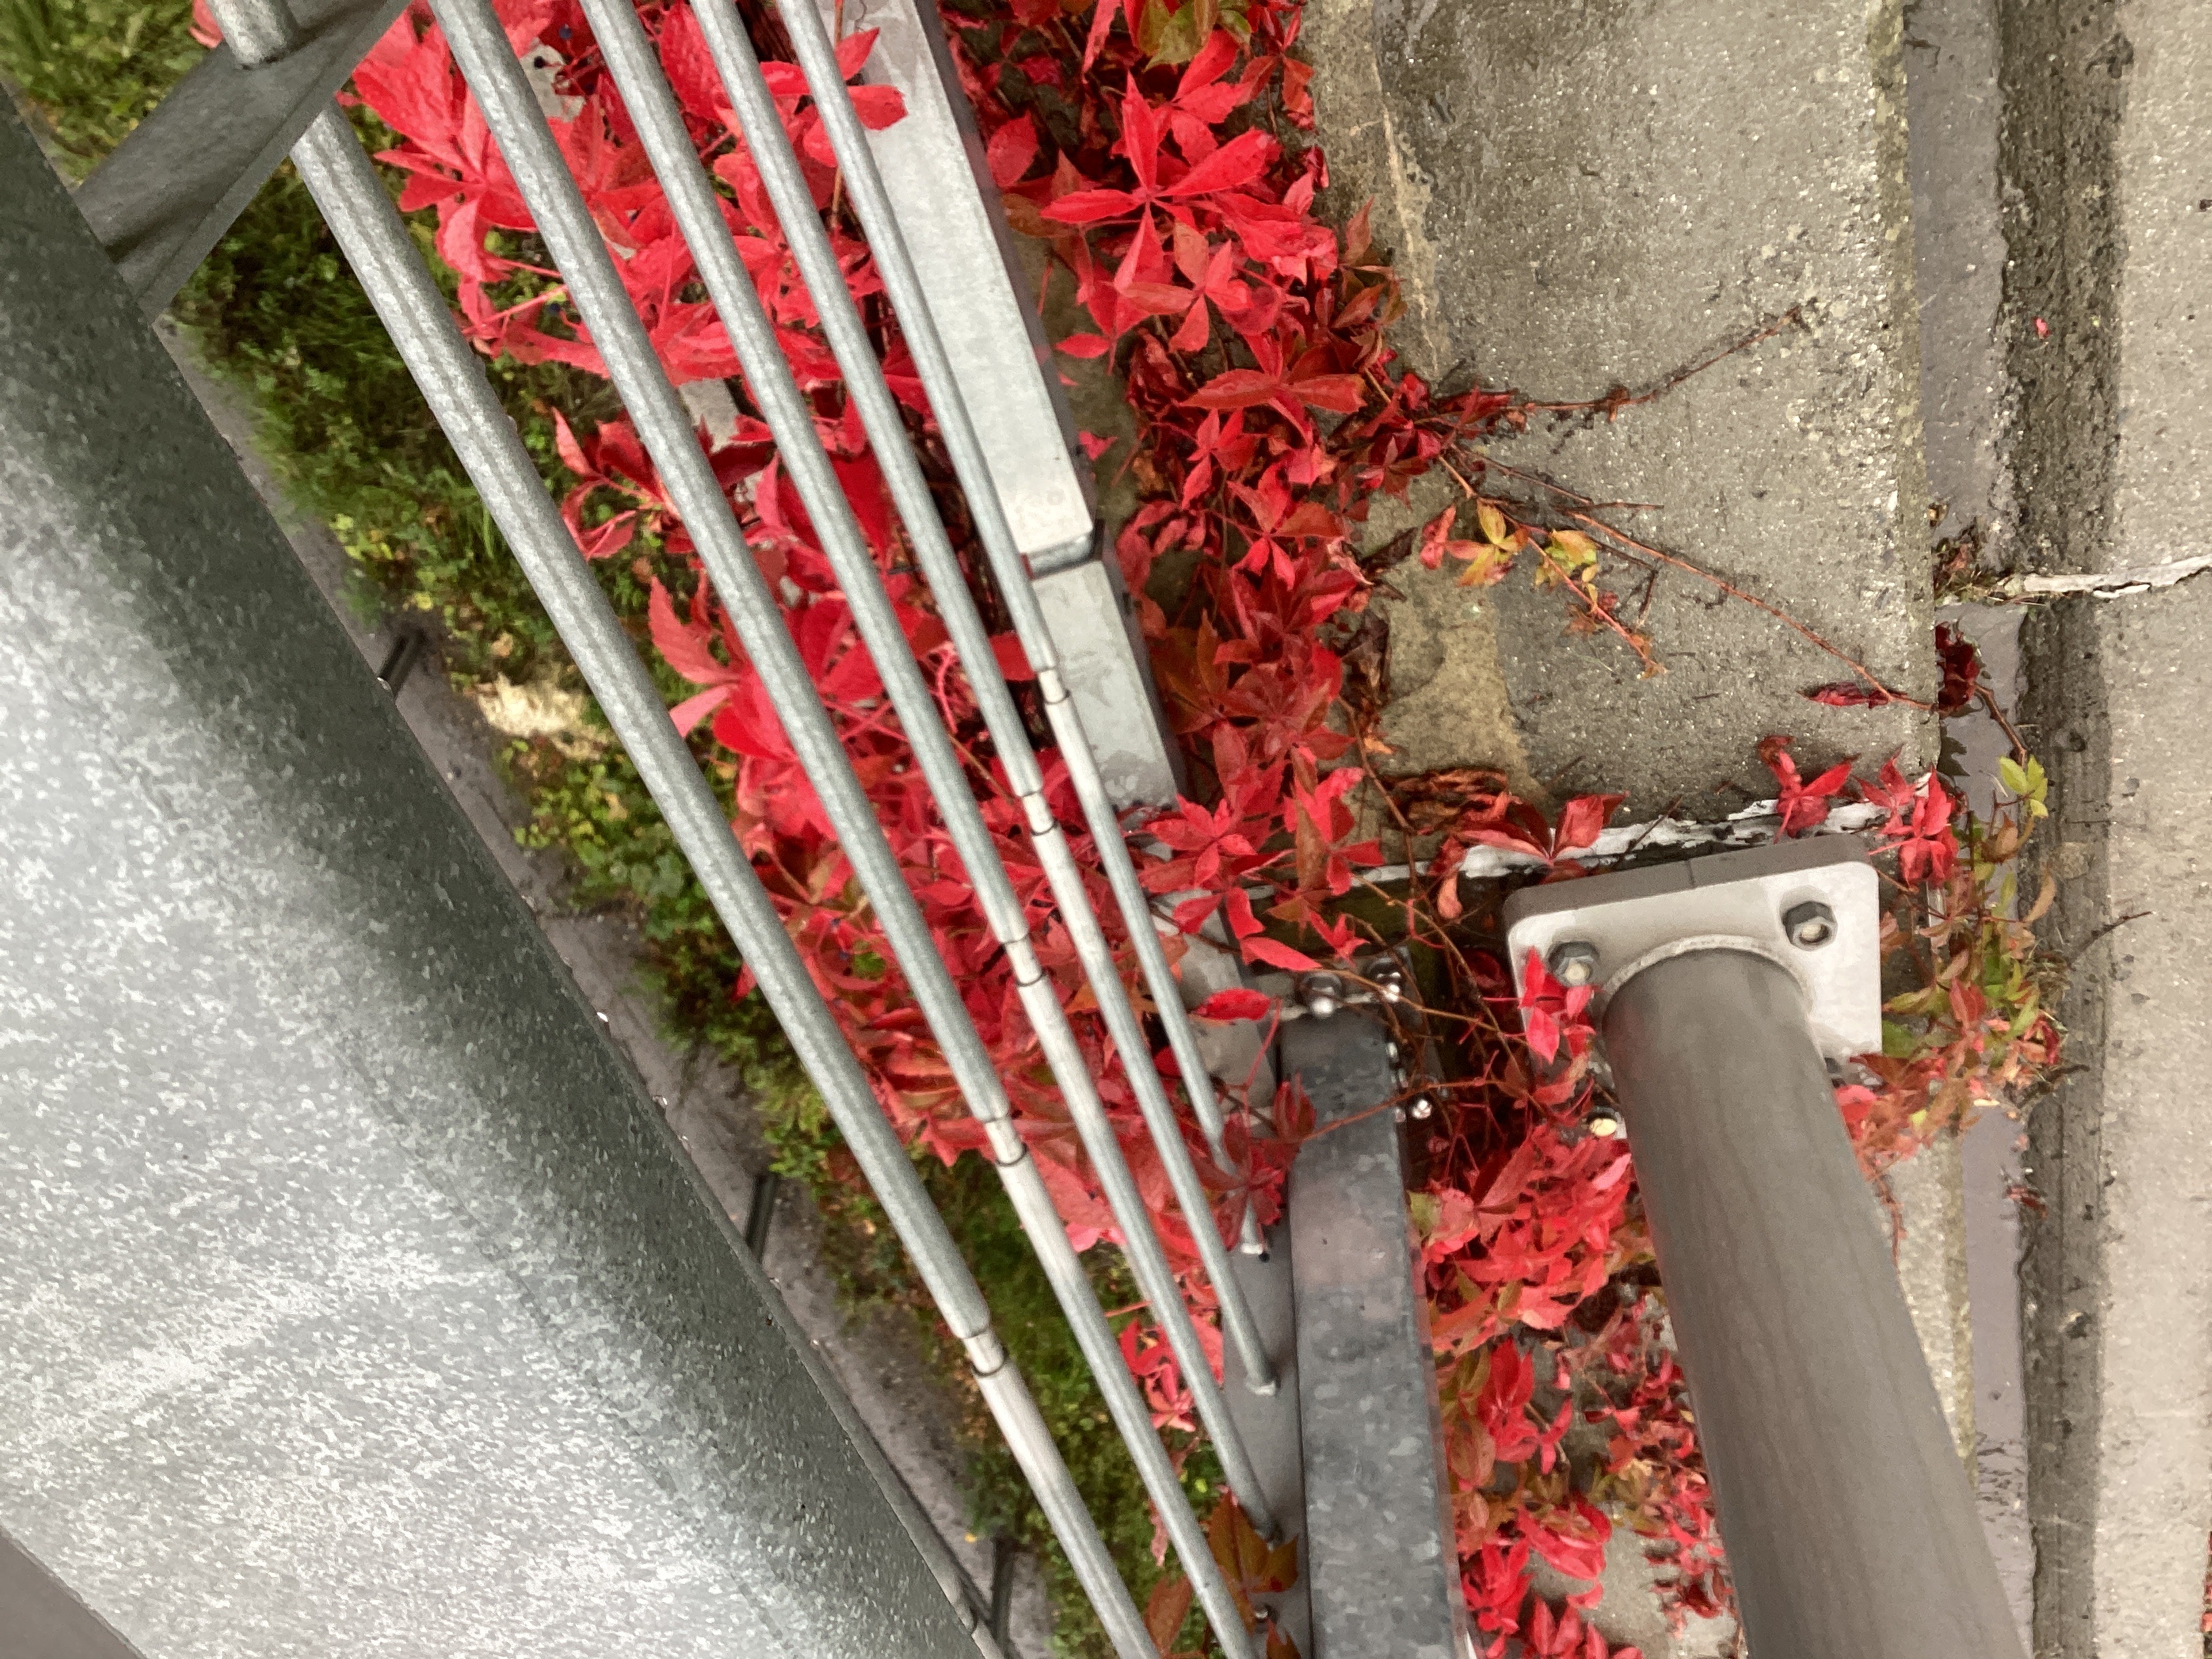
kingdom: Plantae
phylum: Tracheophyta
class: Magnoliopsida
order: Vitales
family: Vitaceae
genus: Parthenocissus
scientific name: Parthenocissus quinquefolia
